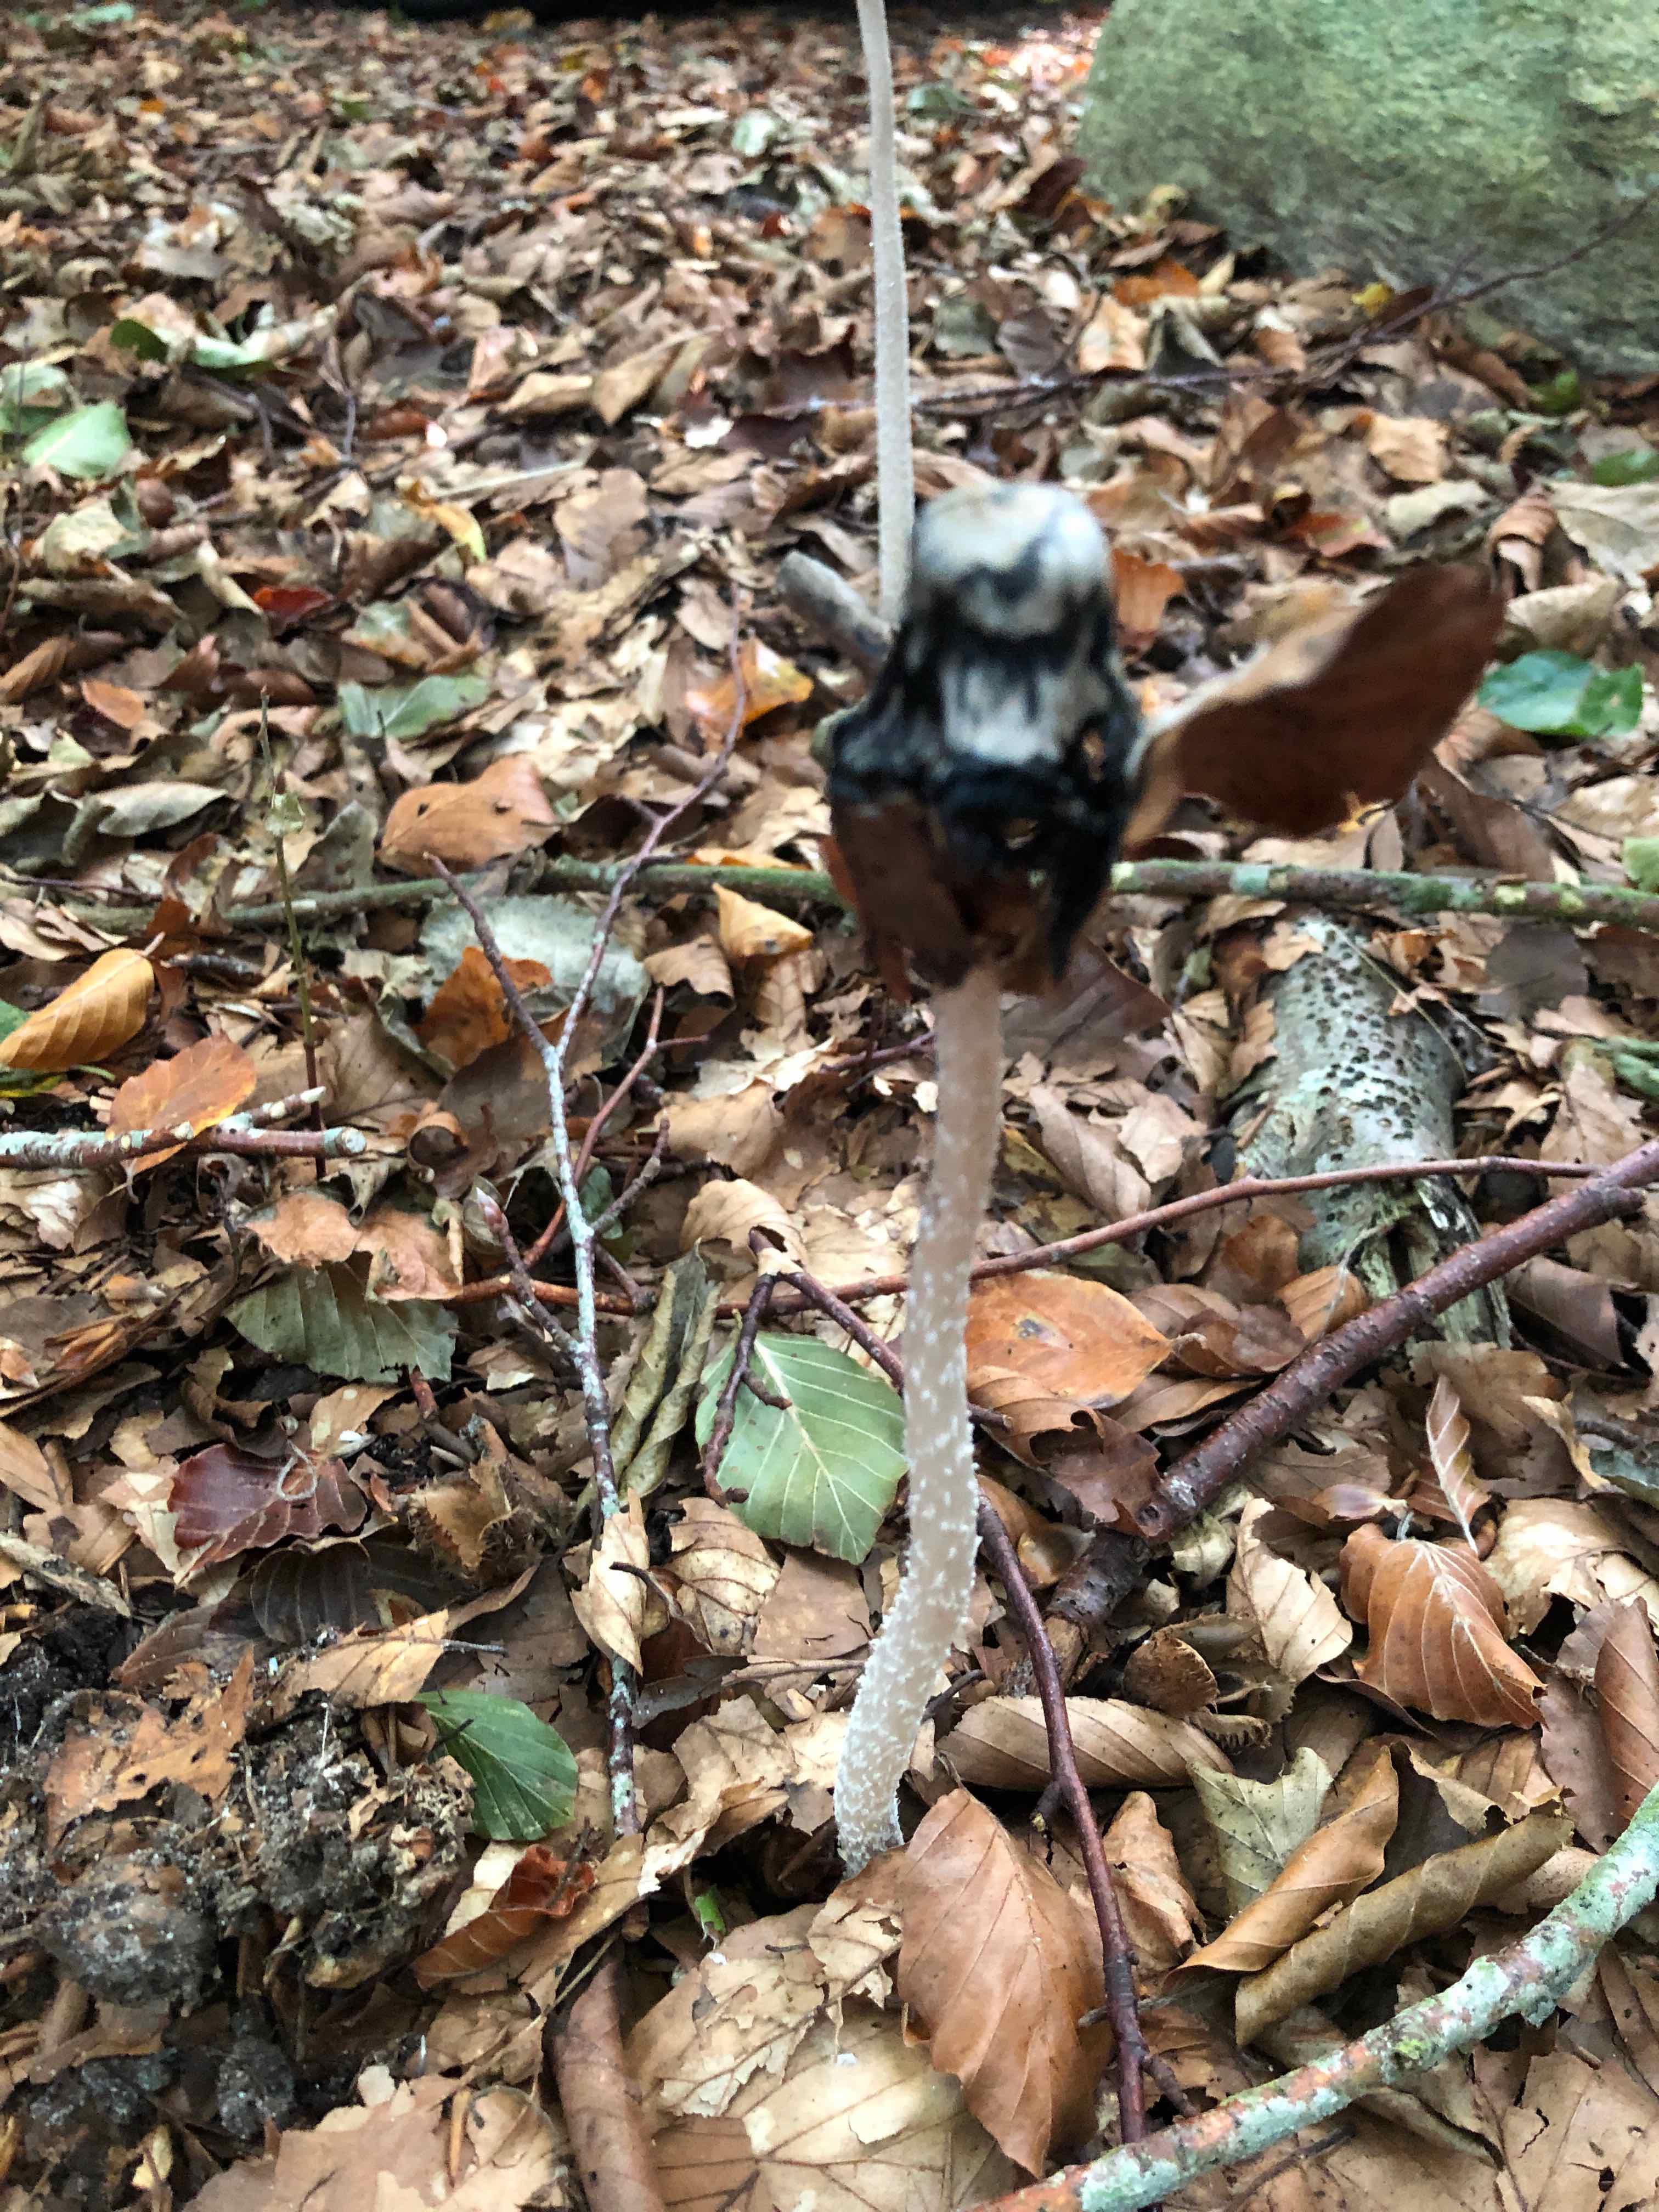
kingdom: Fungi
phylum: Basidiomycota
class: Agaricomycetes
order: Agaricales
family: Psathyrellaceae
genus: Coprinopsis
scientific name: Coprinopsis picacea
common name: skade-blækhat
